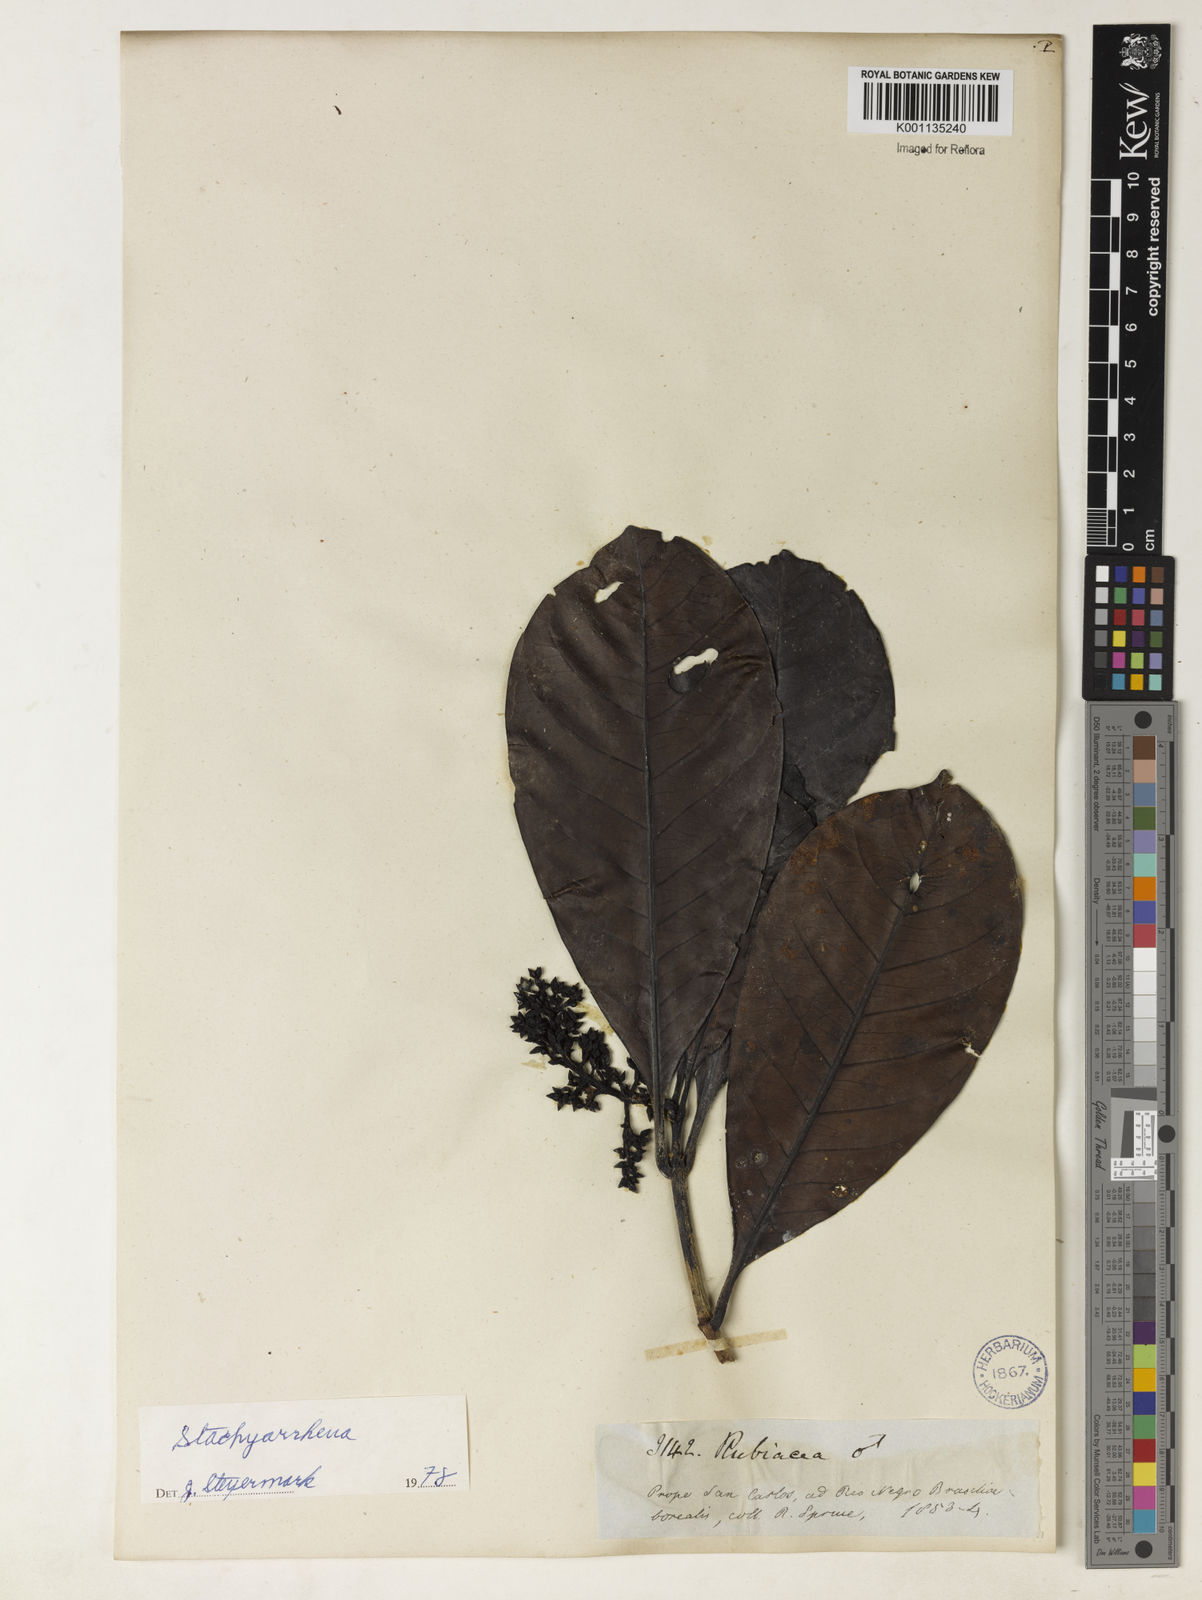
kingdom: Plantae
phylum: Tracheophyta
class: Magnoliopsida
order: Gentianales
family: Rubiaceae
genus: Stachyarrhena
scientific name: Stachyarrhena
